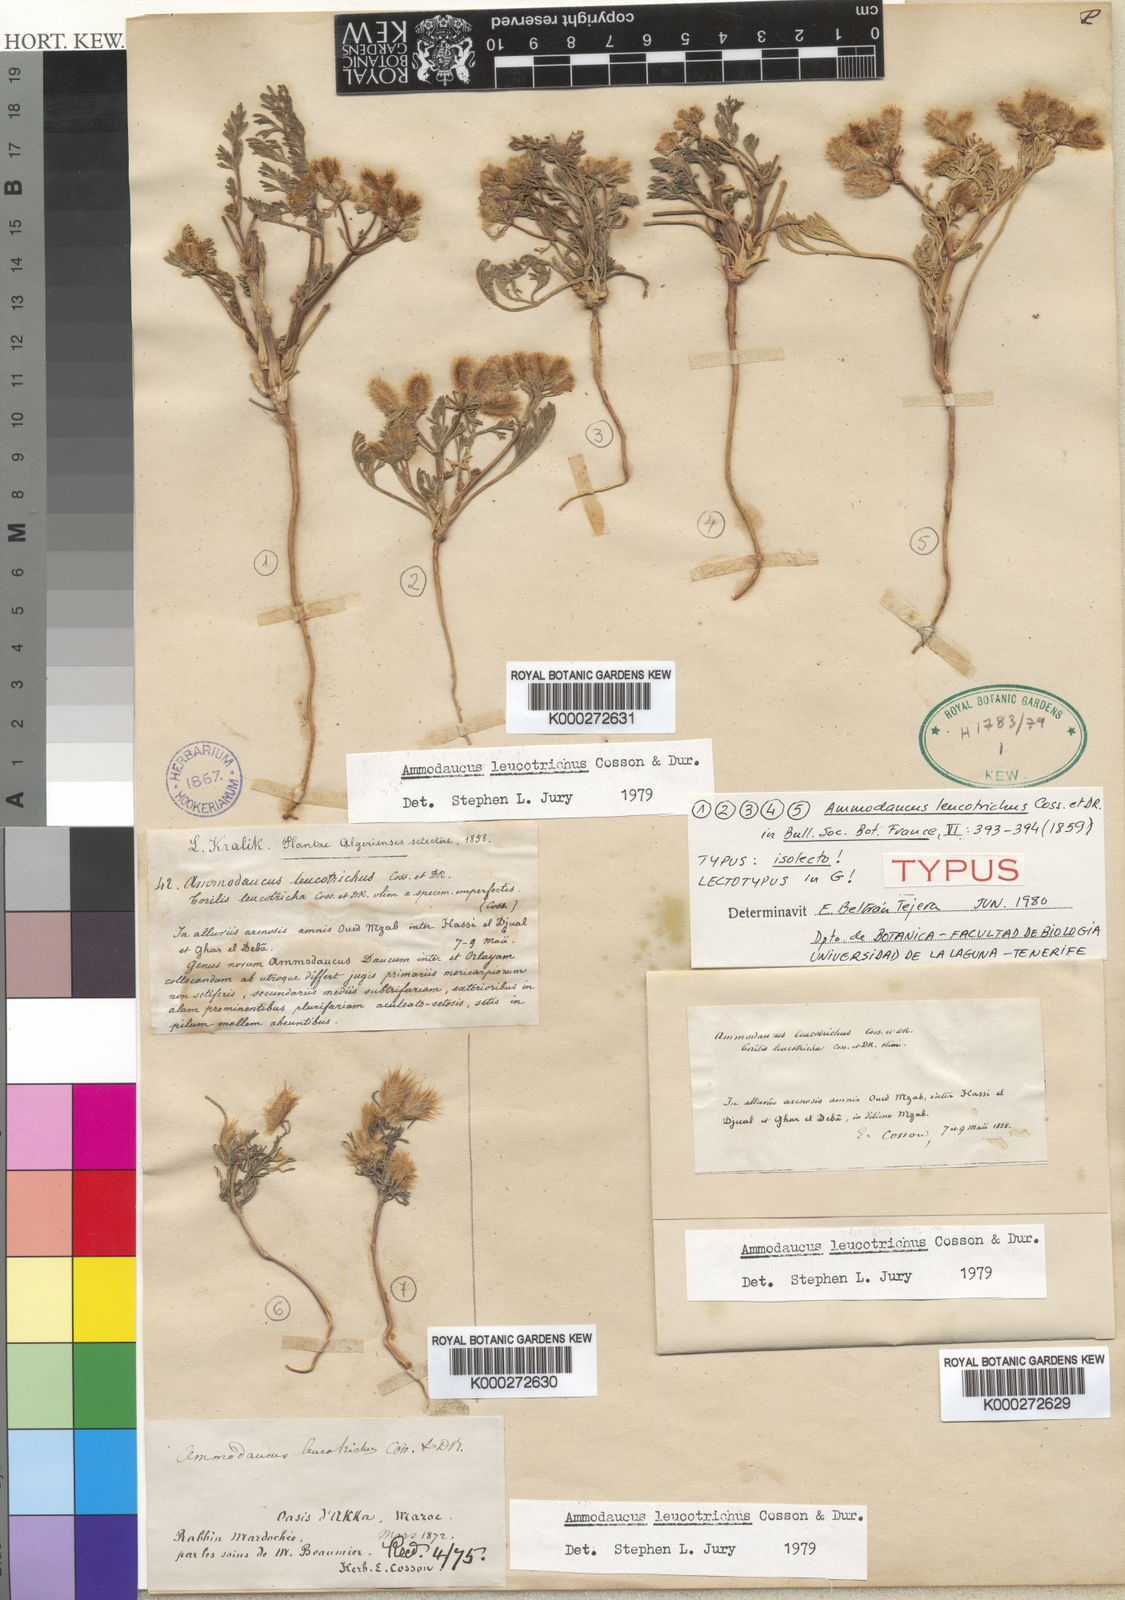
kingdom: Plantae
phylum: Tracheophyta
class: Magnoliopsida
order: Apiales
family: Apiaceae
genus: Ammodaucus
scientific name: Ammodaucus leucotrichus
